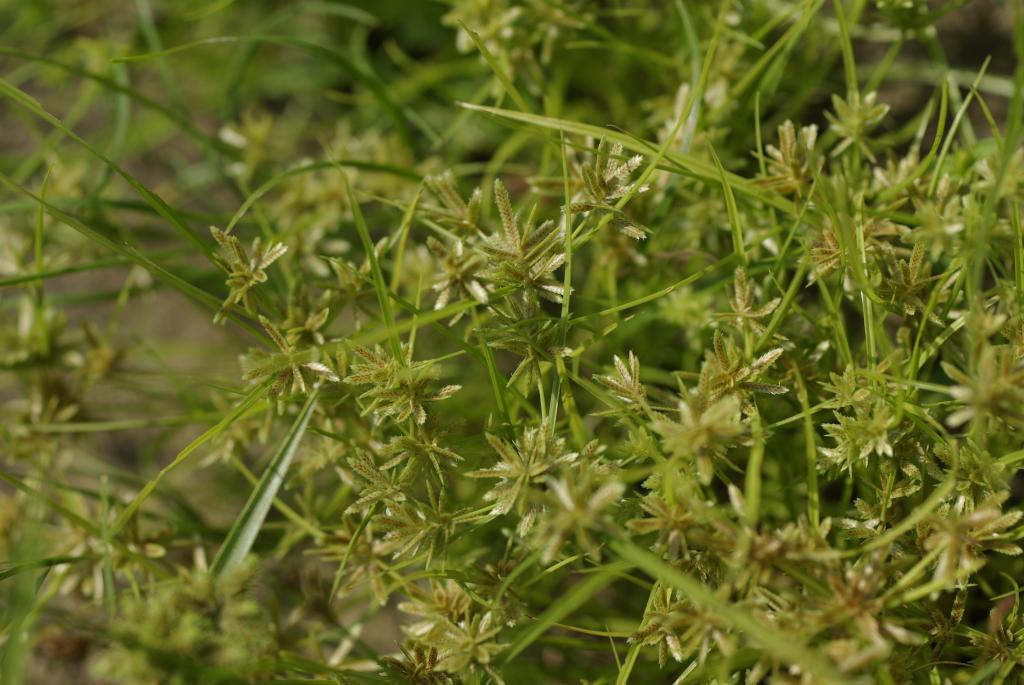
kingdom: Plantae
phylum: Tracheophyta
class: Liliopsida
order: Poales
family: Cyperaceae
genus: Cyperus
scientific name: Cyperus pumilus
